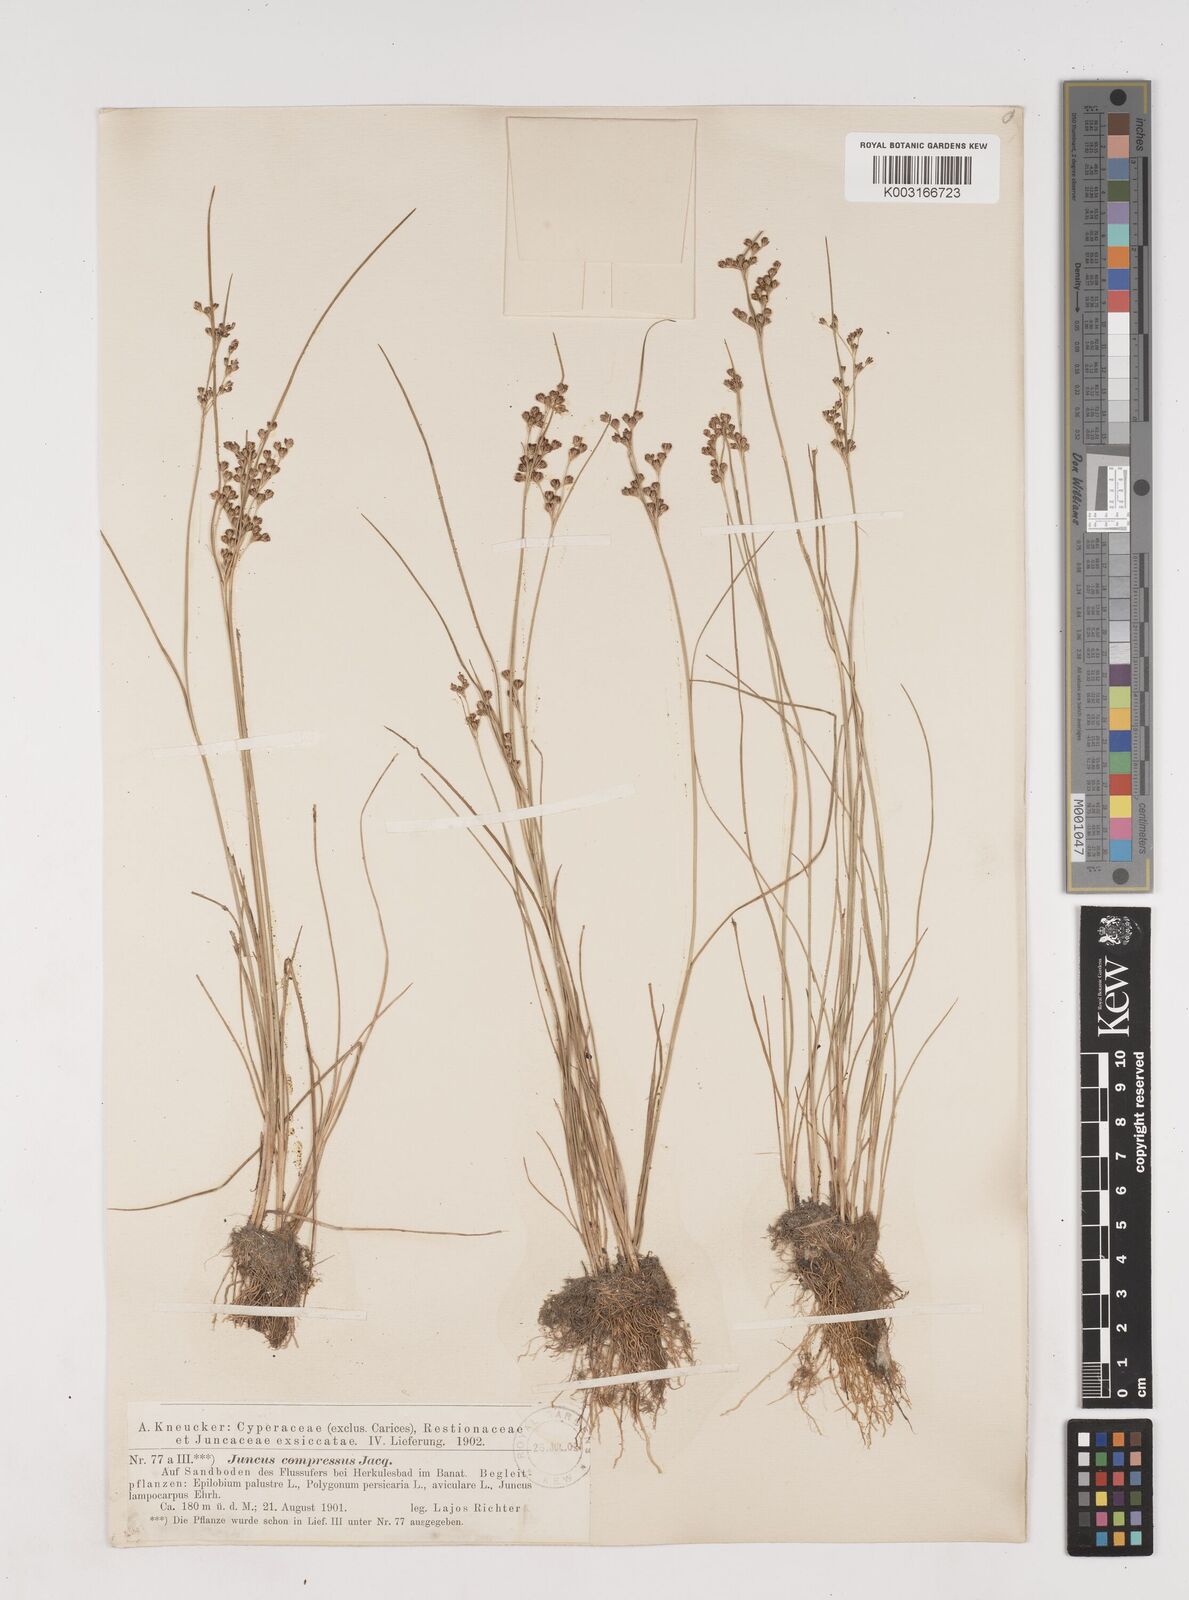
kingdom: Plantae
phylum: Tracheophyta
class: Liliopsida
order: Poales
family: Juncaceae
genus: Juncus
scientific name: Juncus
